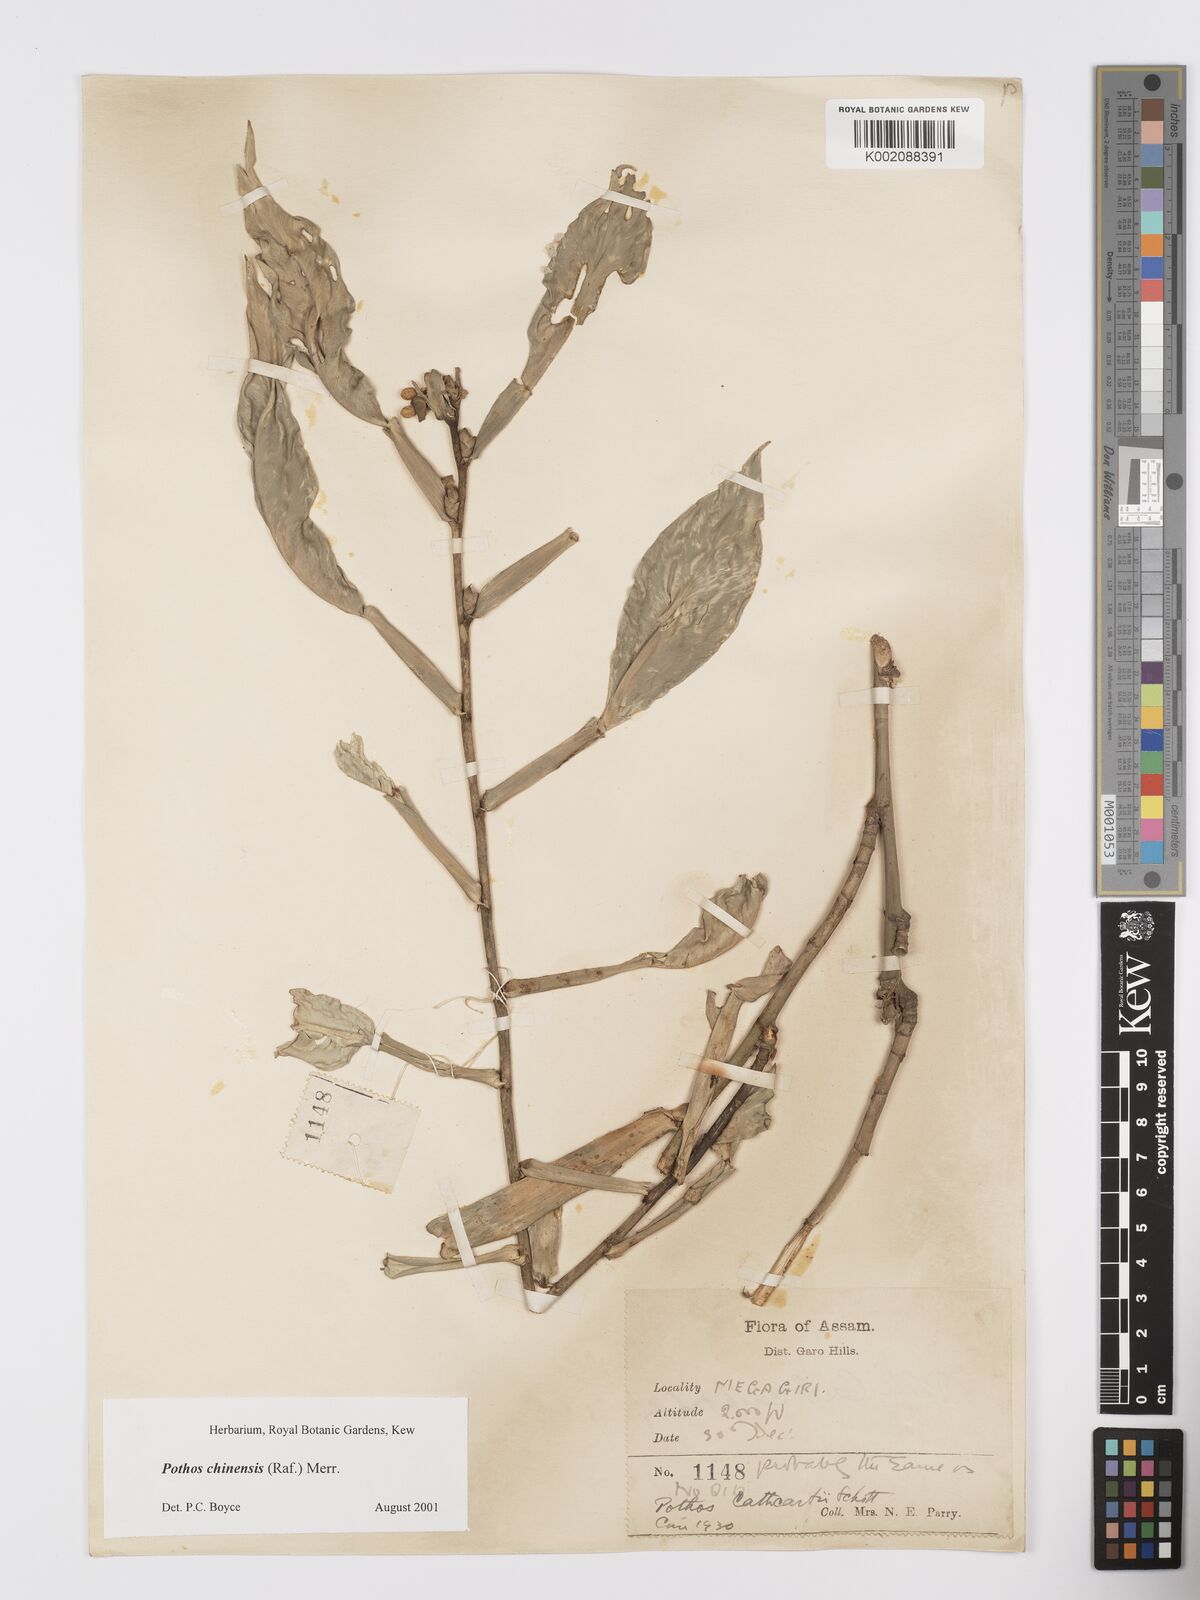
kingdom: Plantae
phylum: Tracheophyta
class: Liliopsida
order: Alismatales
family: Araceae
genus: Pothos
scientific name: Pothos chinensis
